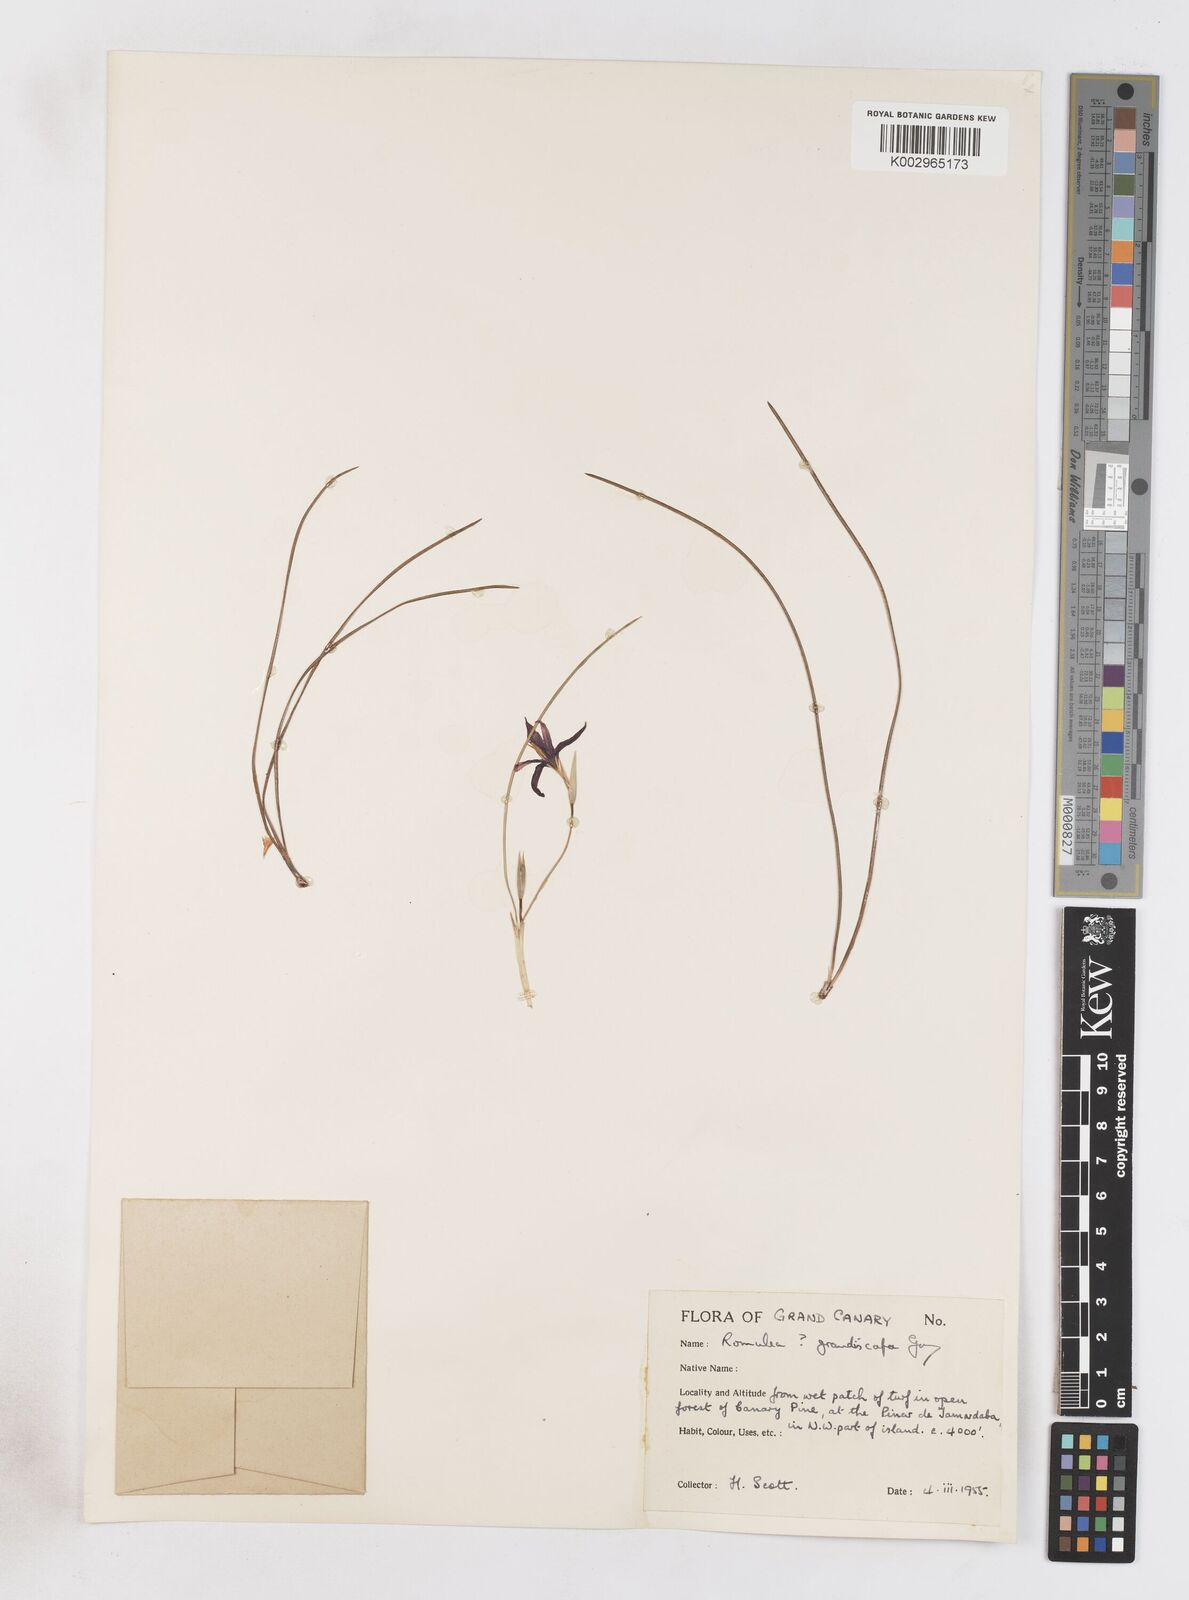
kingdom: Plantae
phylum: Tracheophyta
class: Liliopsida
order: Asparagales
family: Iridaceae
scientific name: Iridaceae
